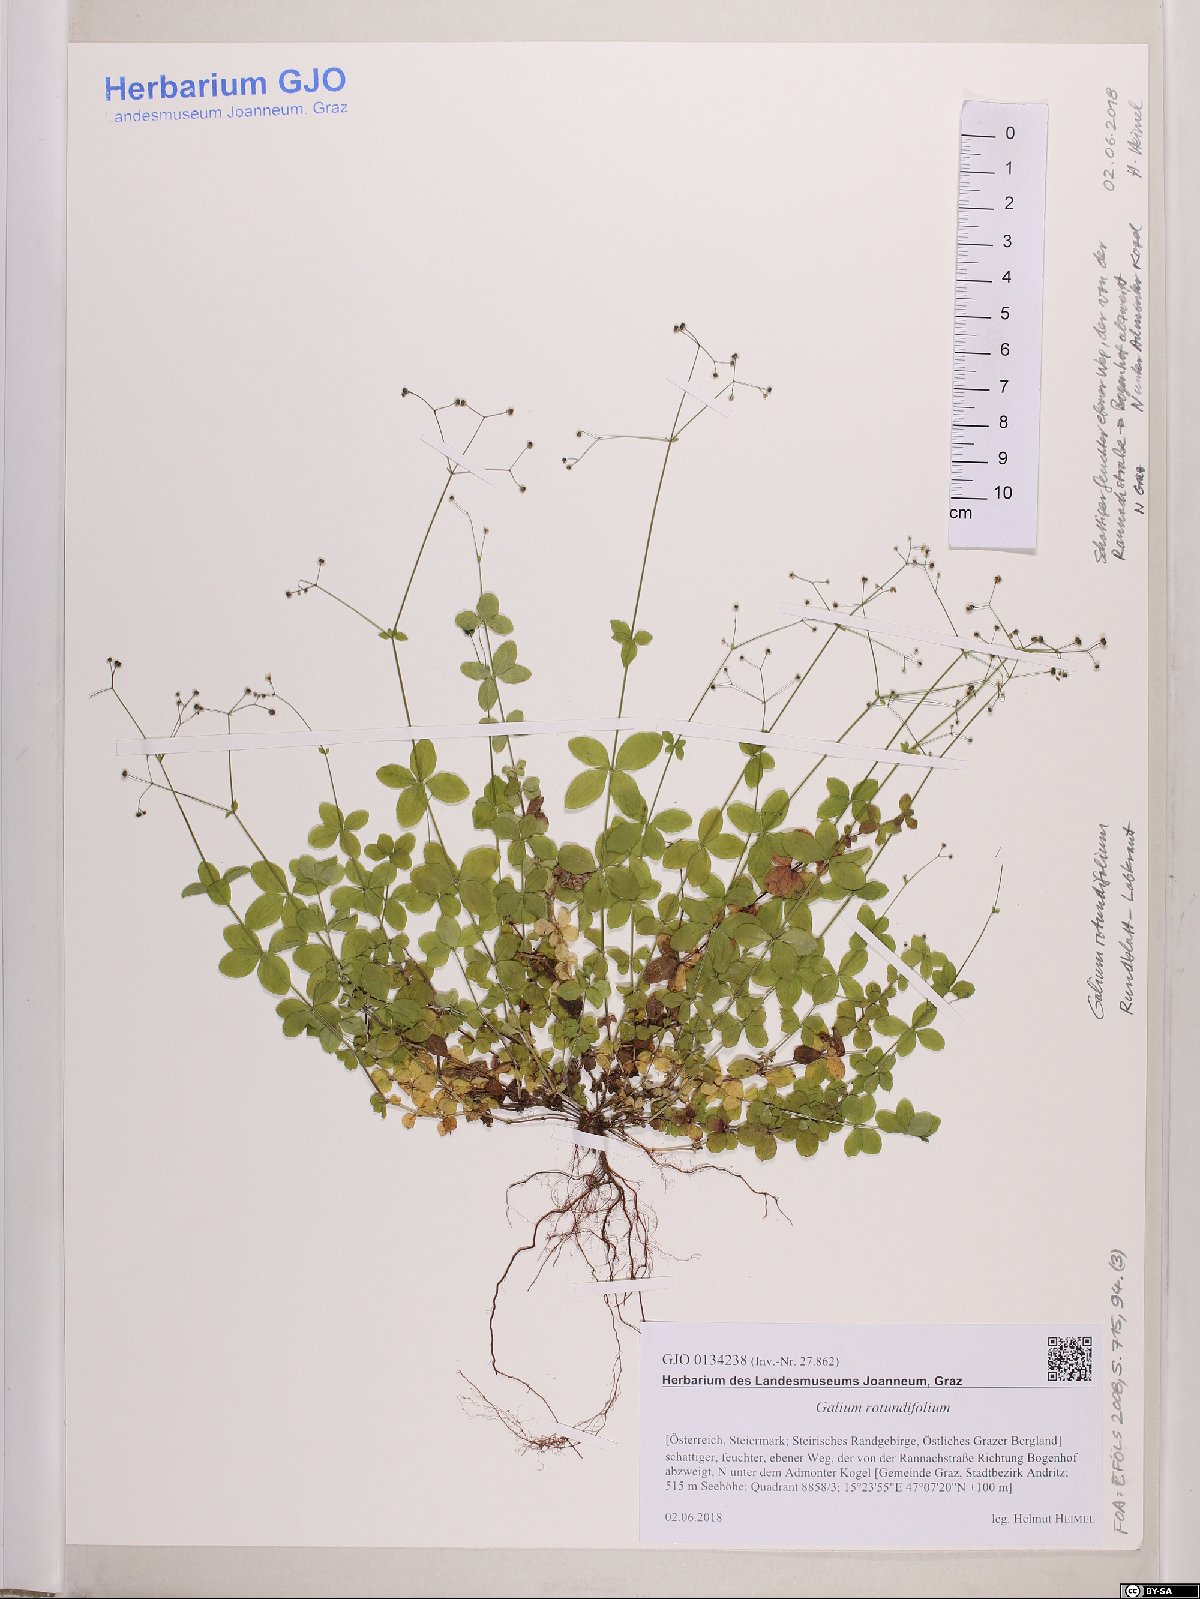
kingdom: Plantae
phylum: Tracheophyta
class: Magnoliopsida
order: Gentianales
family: Rubiaceae
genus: Galium
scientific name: Galium rotundifolium
